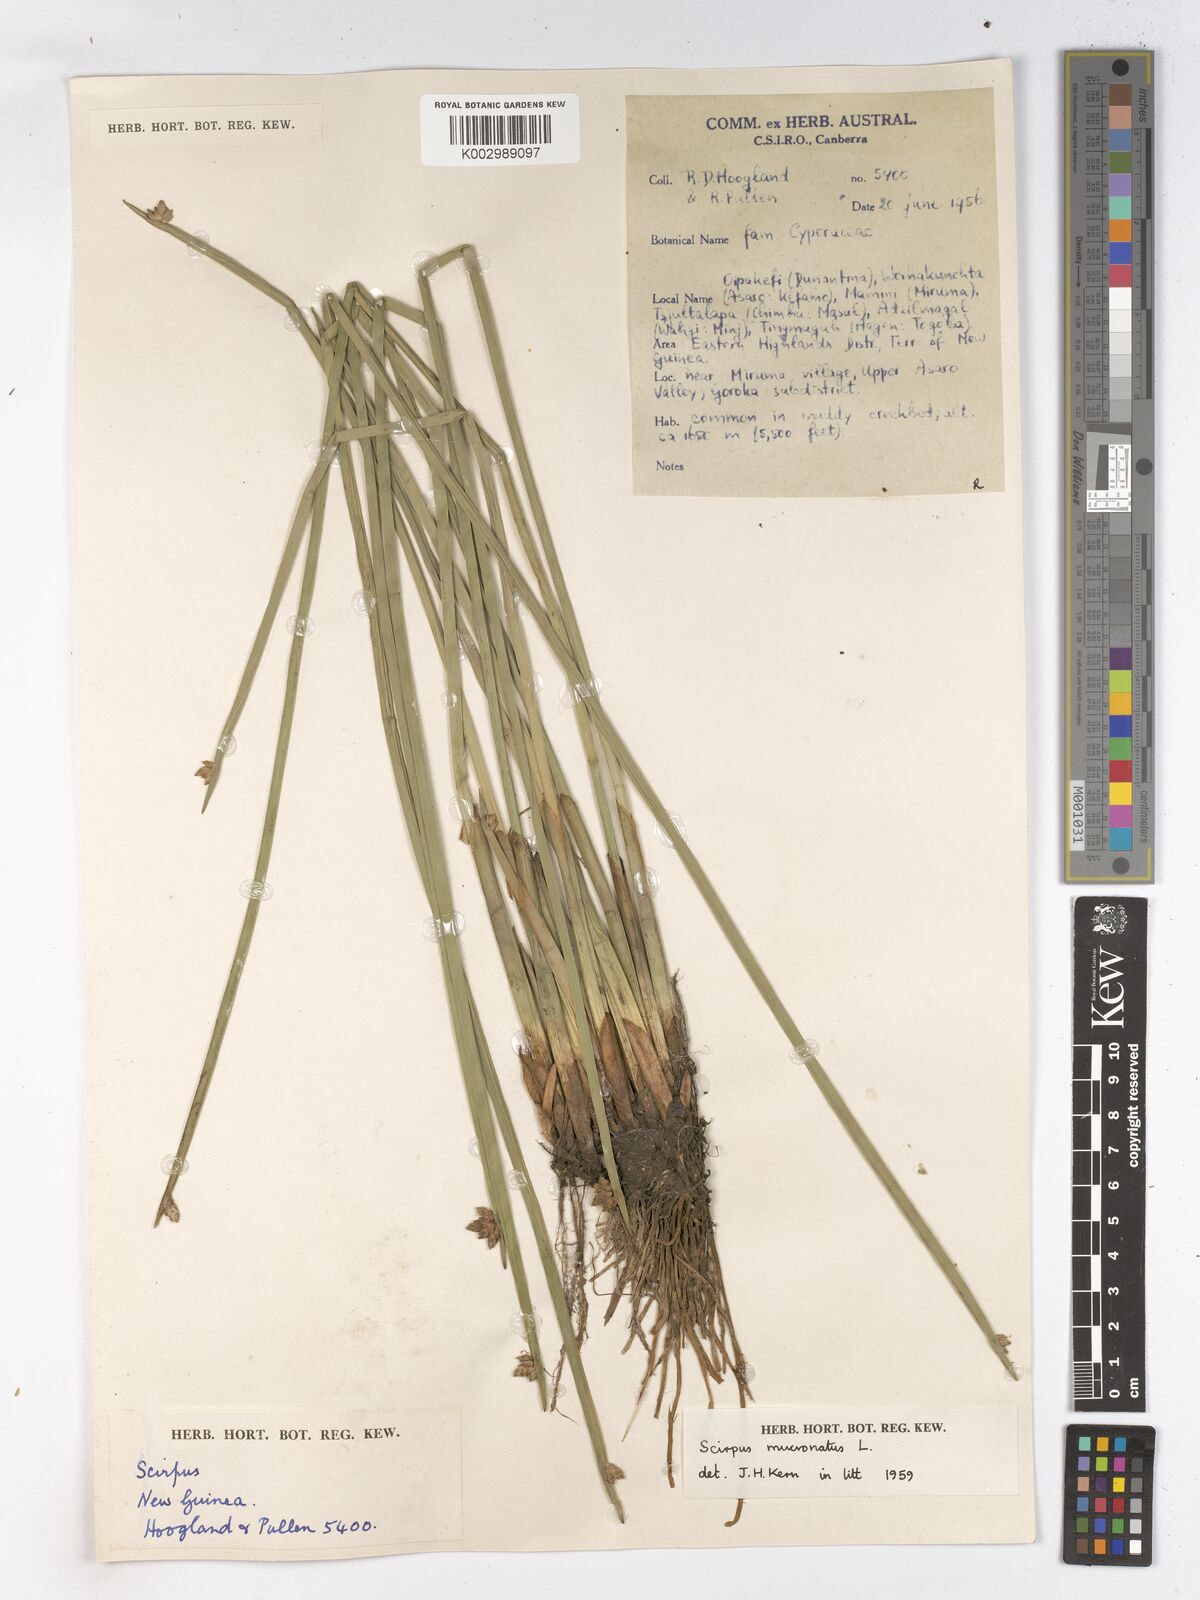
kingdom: Plantae
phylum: Tracheophyta
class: Liliopsida
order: Poales
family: Cyperaceae
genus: Schoenoplectiella
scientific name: Schoenoplectiella mucronata
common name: Bog bulrush
